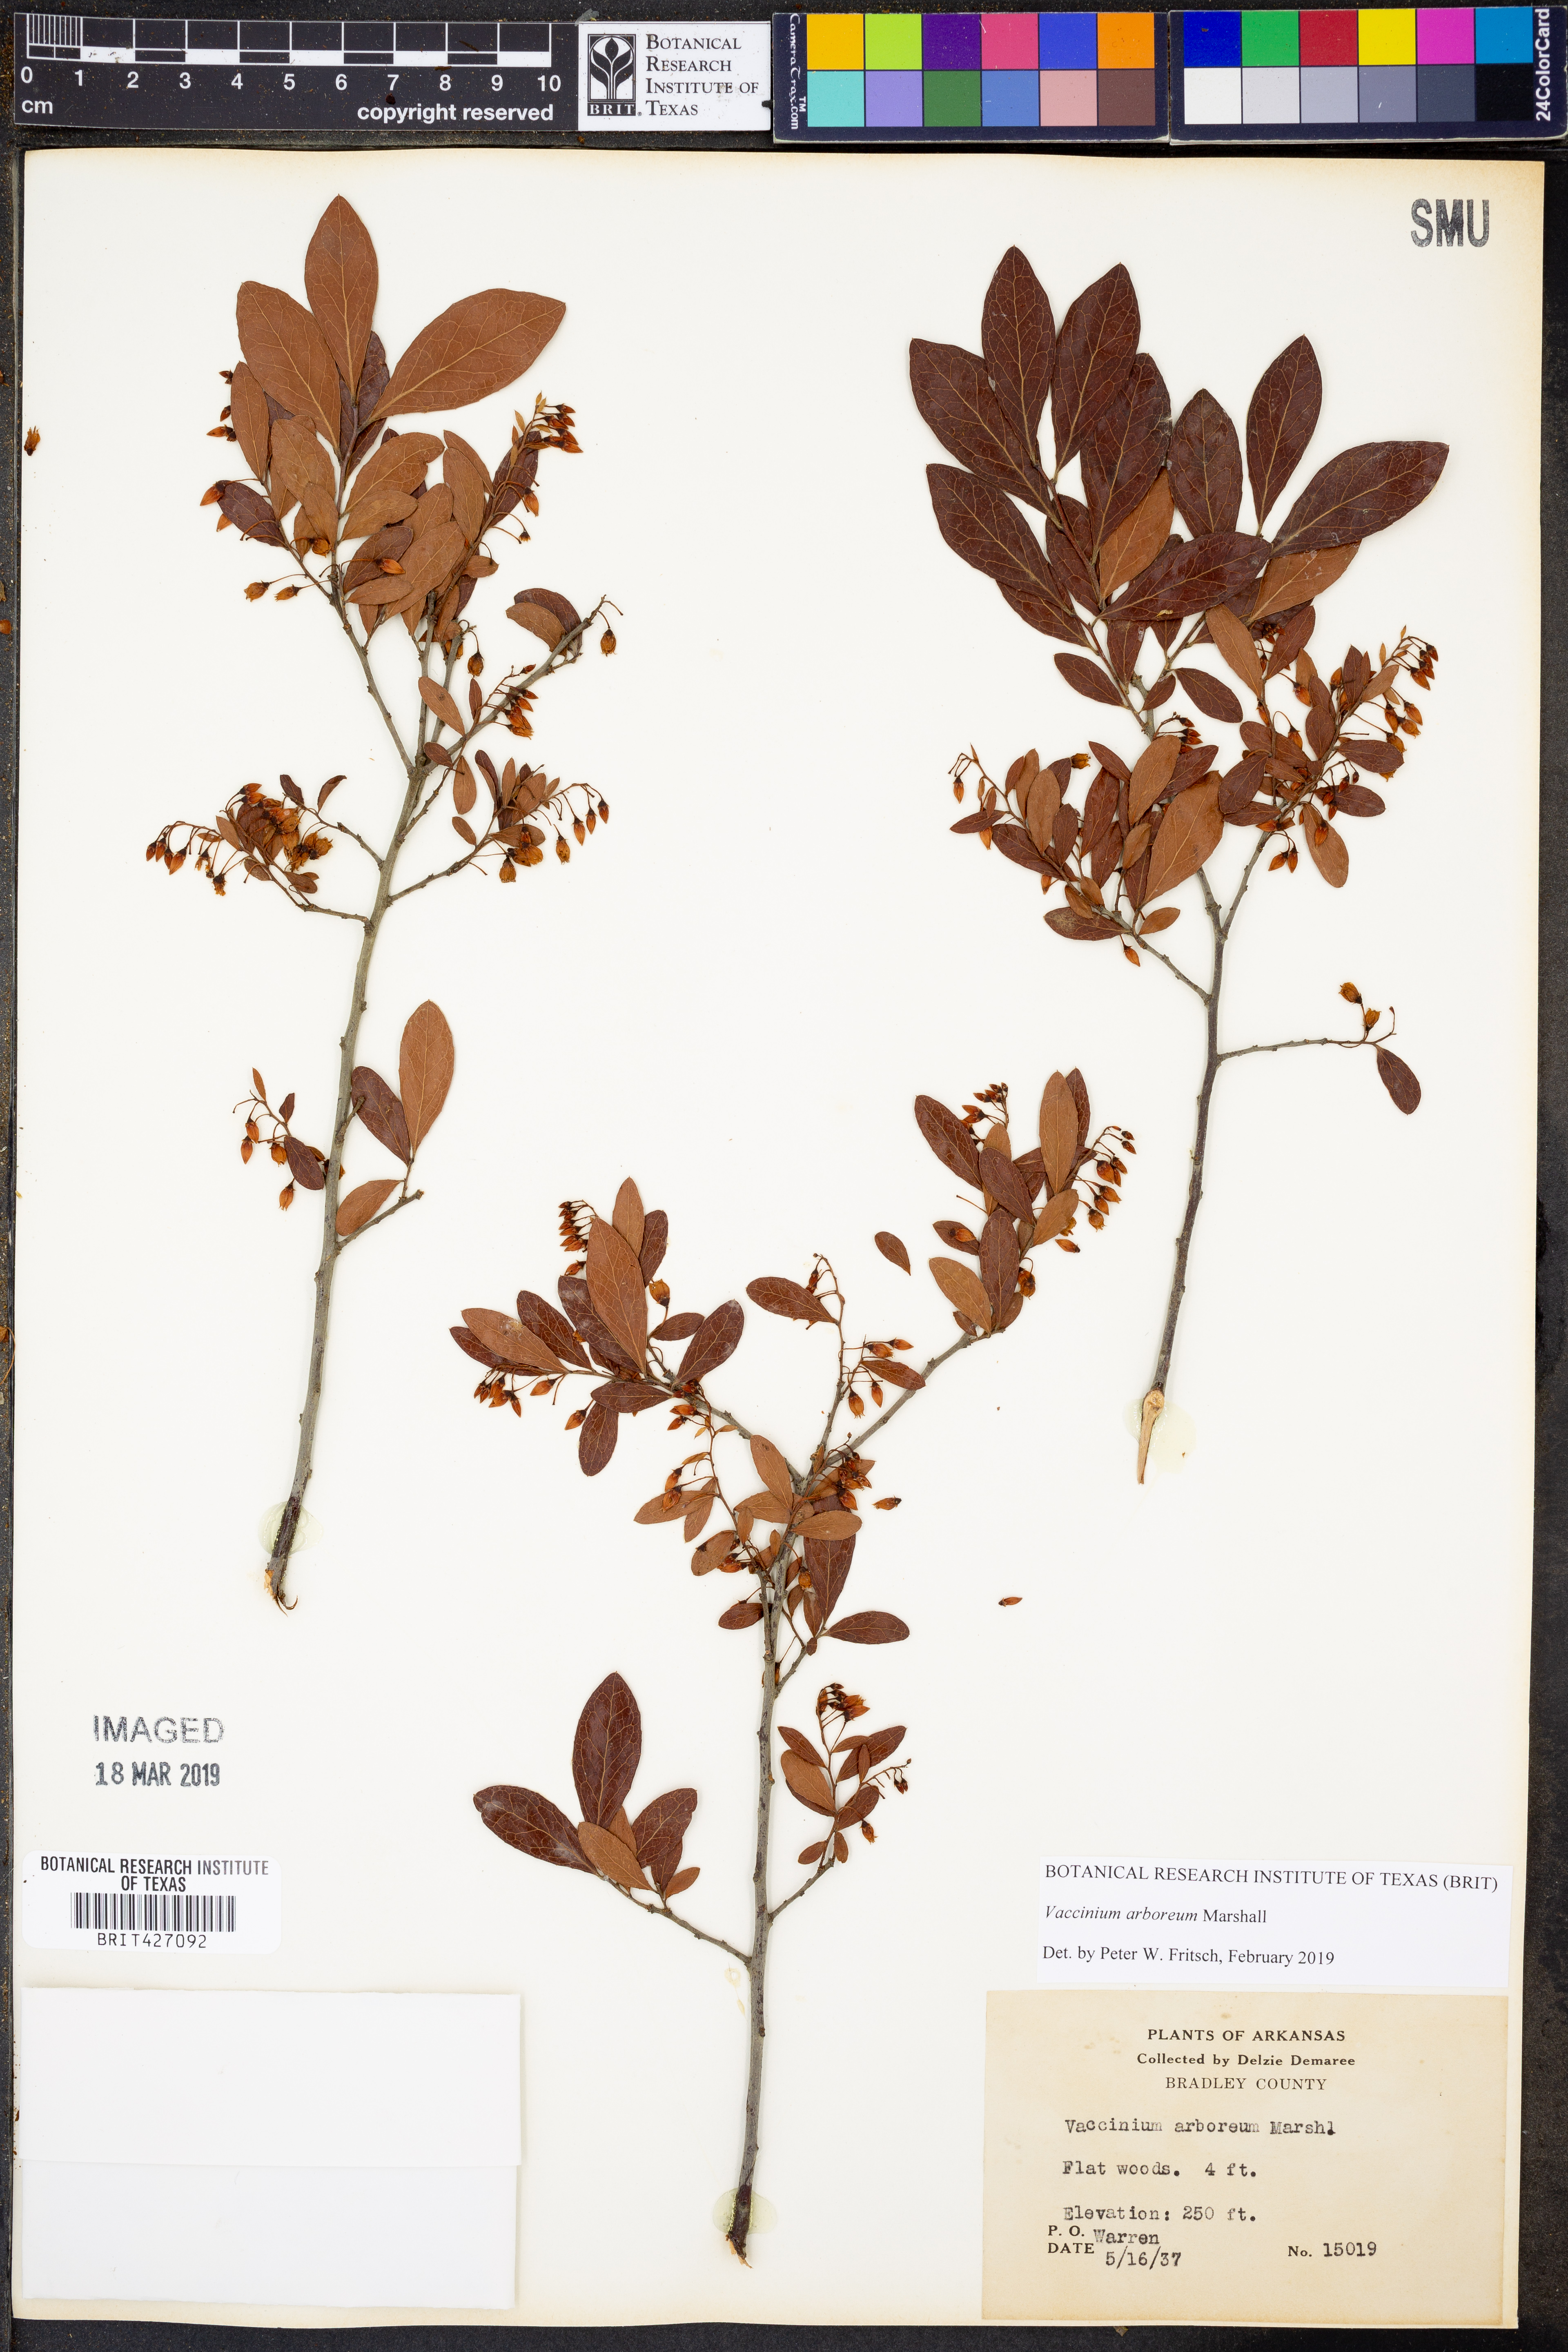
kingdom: Plantae
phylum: Tracheophyta
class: Magnoliopsida
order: Ericales
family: Ericaceae
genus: Vaccinium
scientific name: Vaccinium arboreum
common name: Farkleberry
